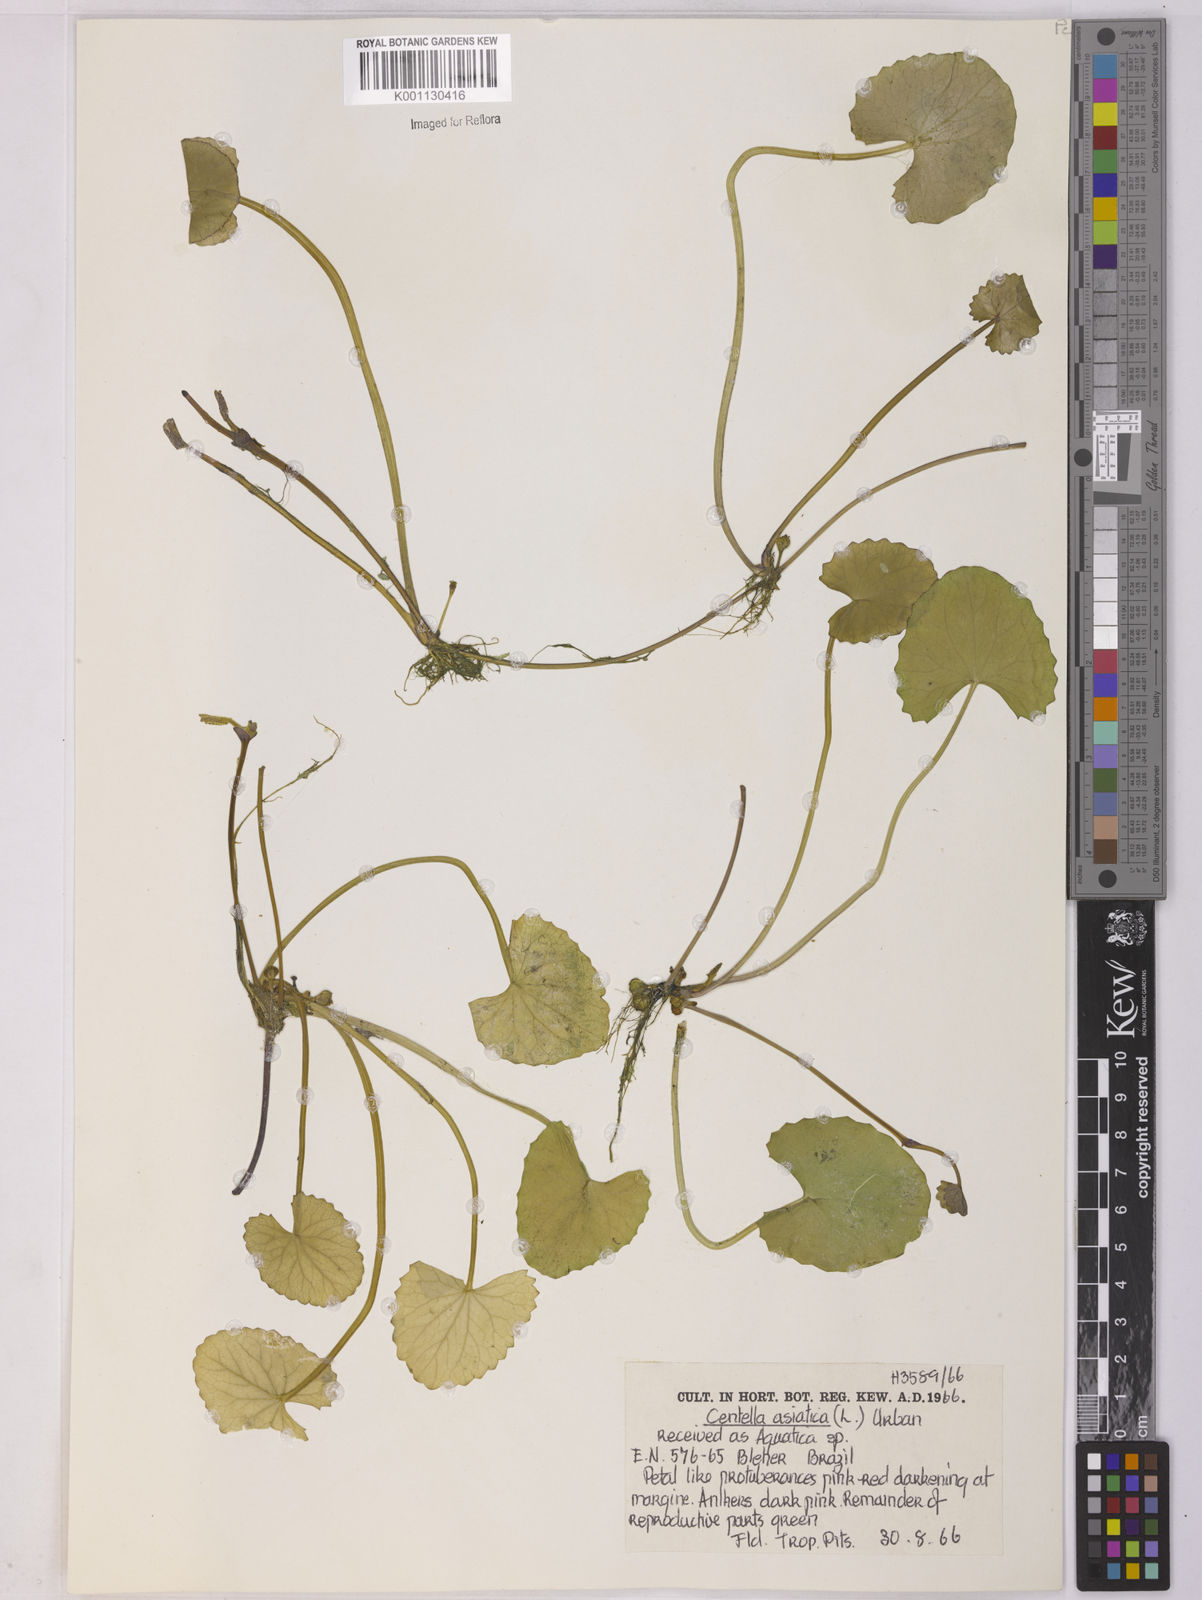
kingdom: Plantae
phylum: Tracheophyta
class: Magnoliopsida
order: Apiales
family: Apiaceae
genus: Centella
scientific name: Centella asiatica
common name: Spadeleaf
